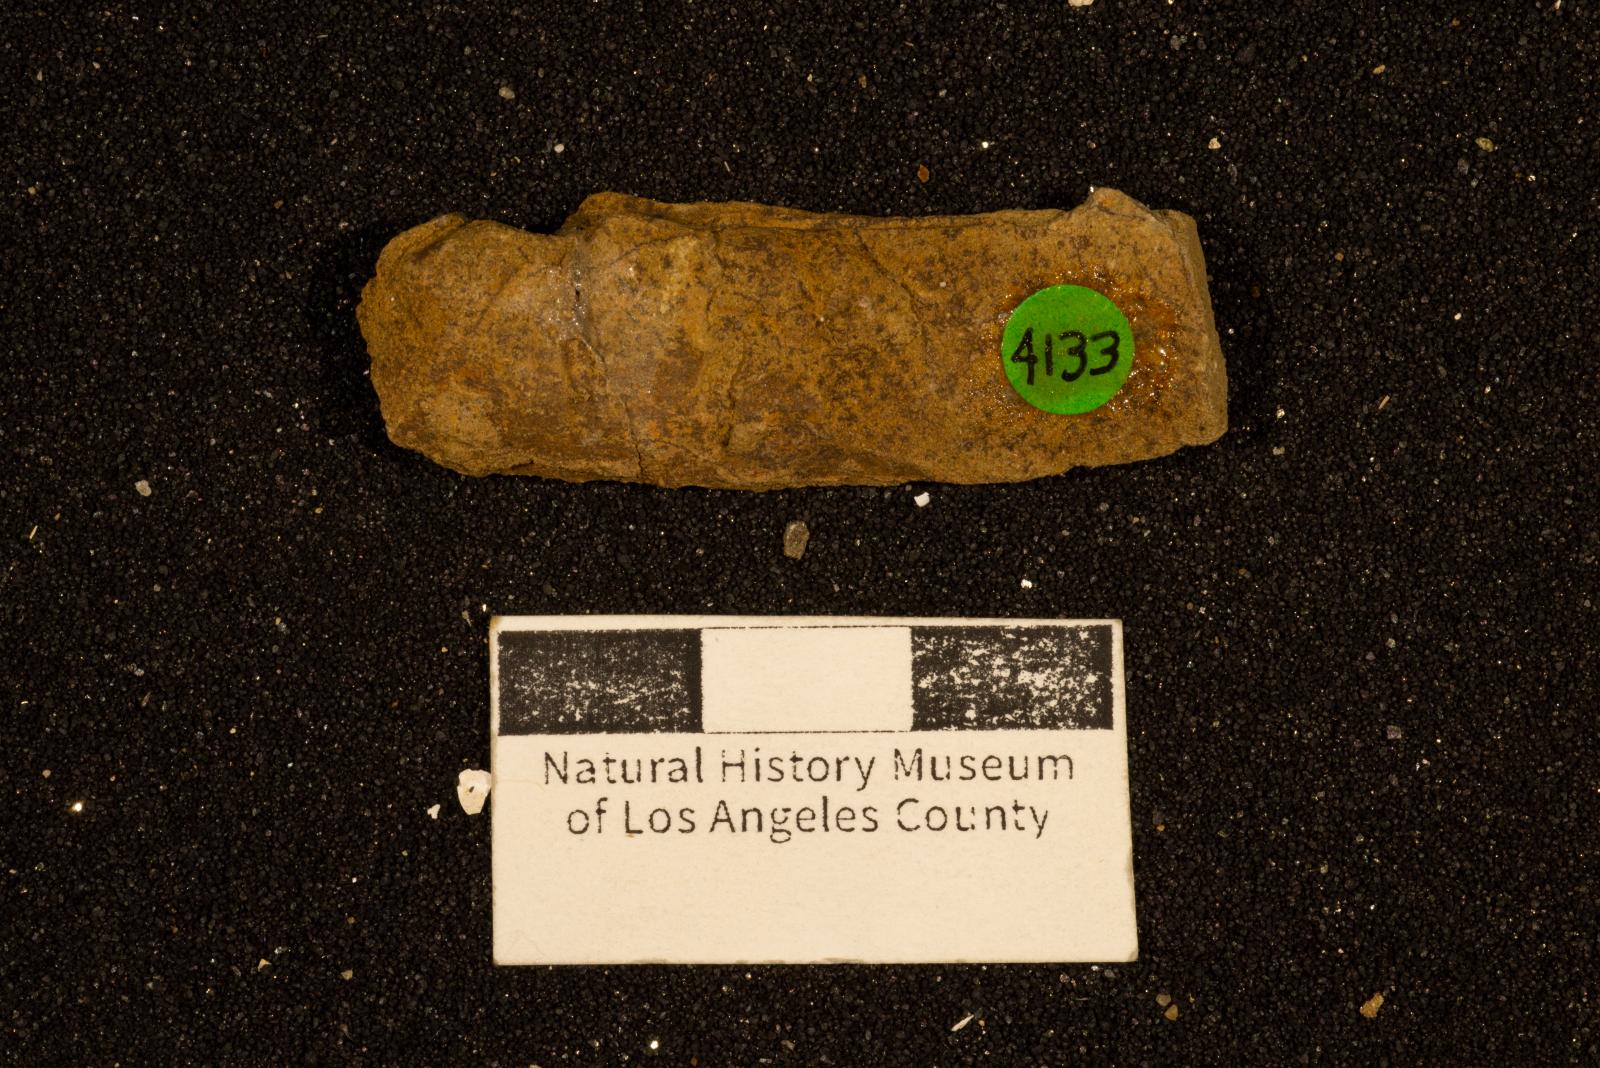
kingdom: Animalia
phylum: Mollusca
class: Bivalvia
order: Unionida
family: Iridinidae
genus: Leptosolen
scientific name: Leptosolen
